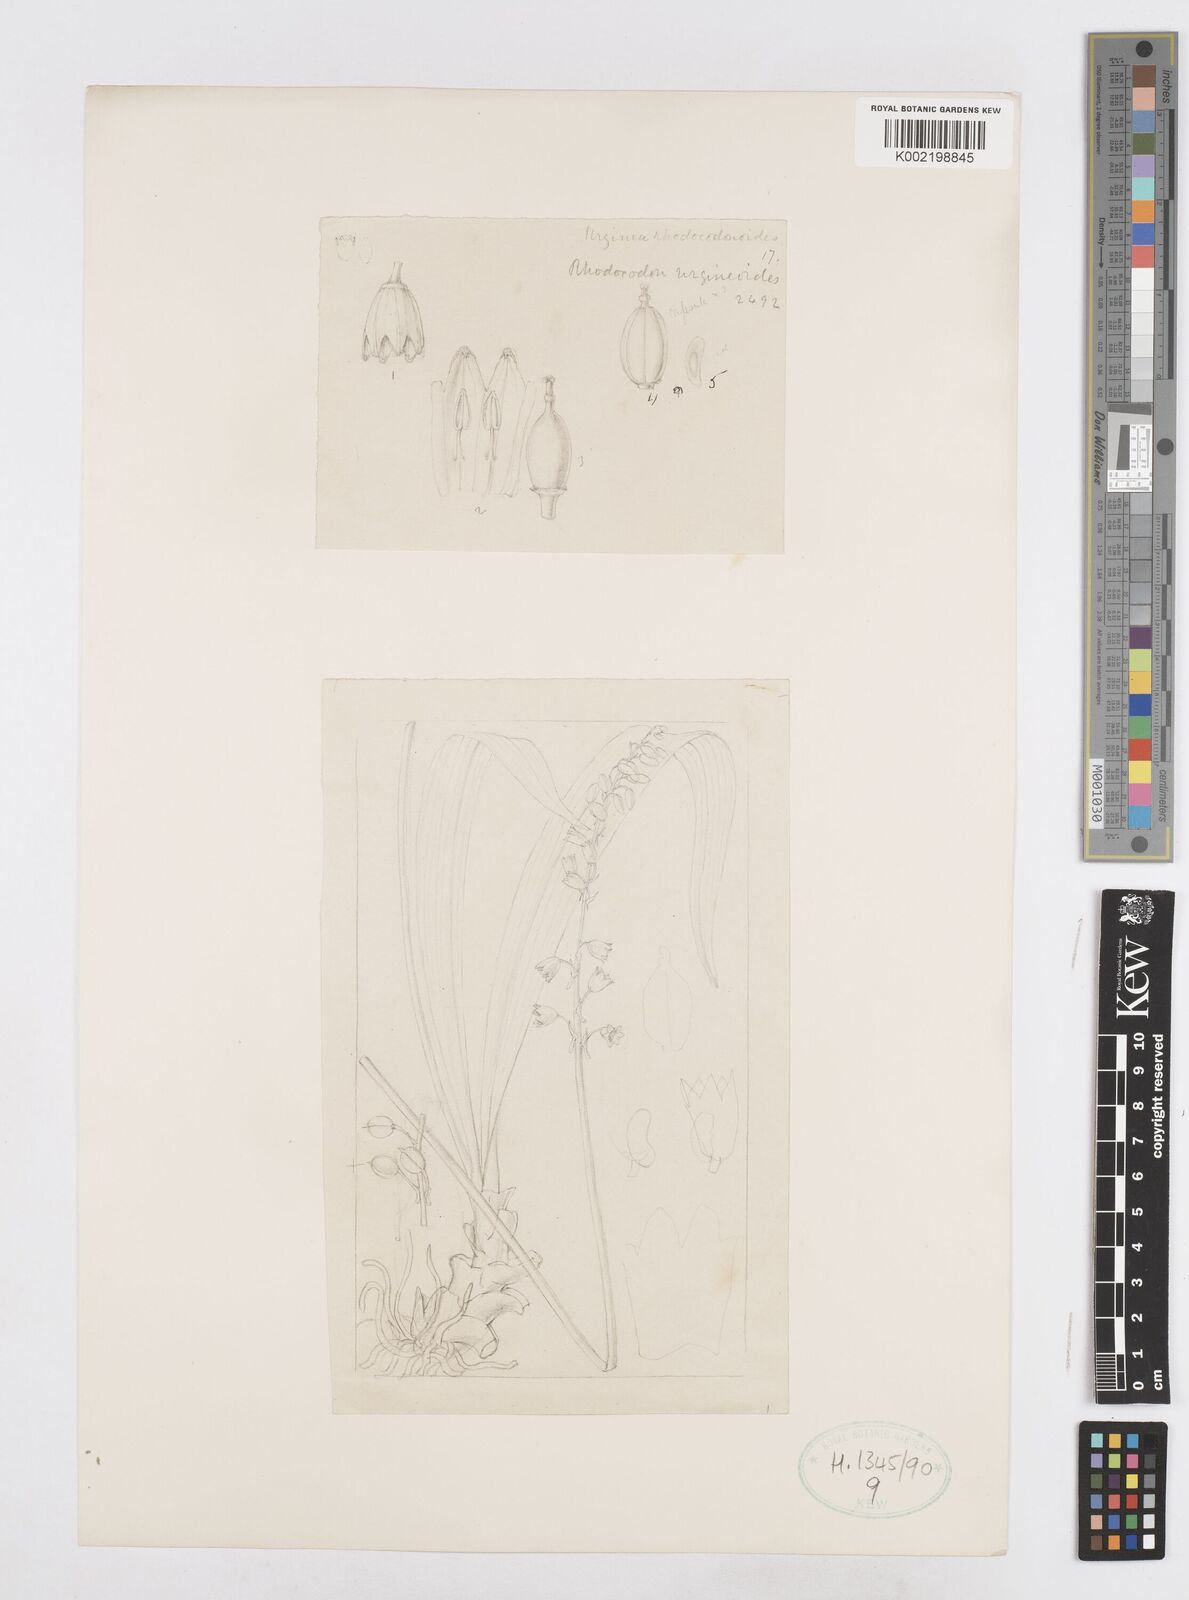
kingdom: Plantae
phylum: Tracheophyta
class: Liliopsida
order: Asparagales
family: Asparagaceae
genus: Drimia
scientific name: Drimia urgineoides
